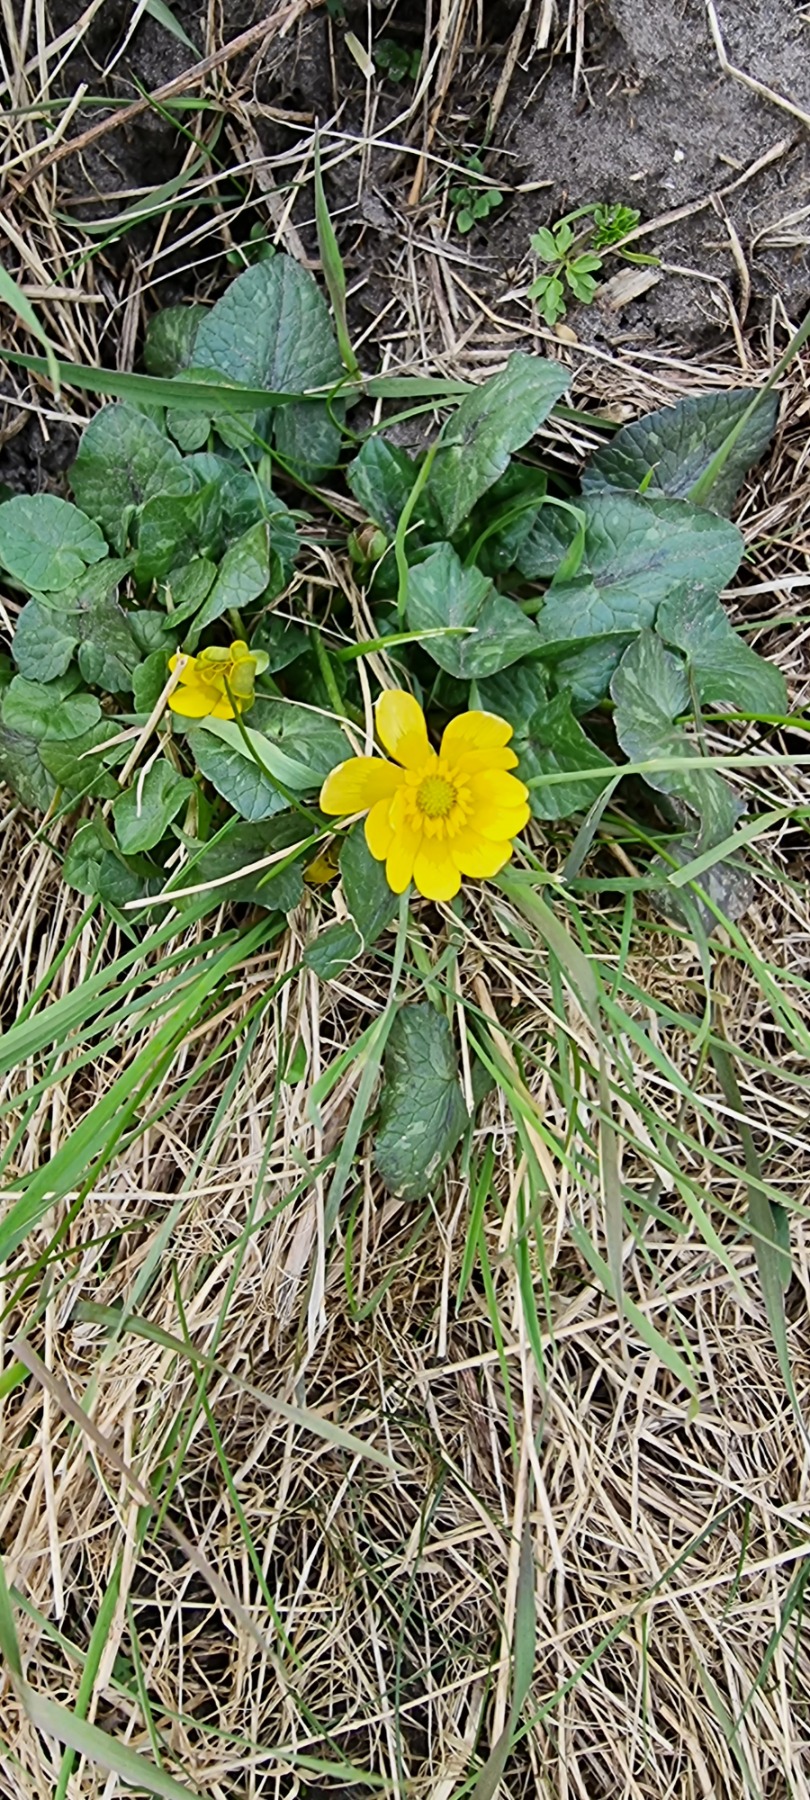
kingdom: Plantae
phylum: Tracheophyta
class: Magnoliopsida
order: Ranunculales
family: Ranunculaceae
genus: Caltha
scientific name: Caltha palustris
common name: Eng-kabbeleje
